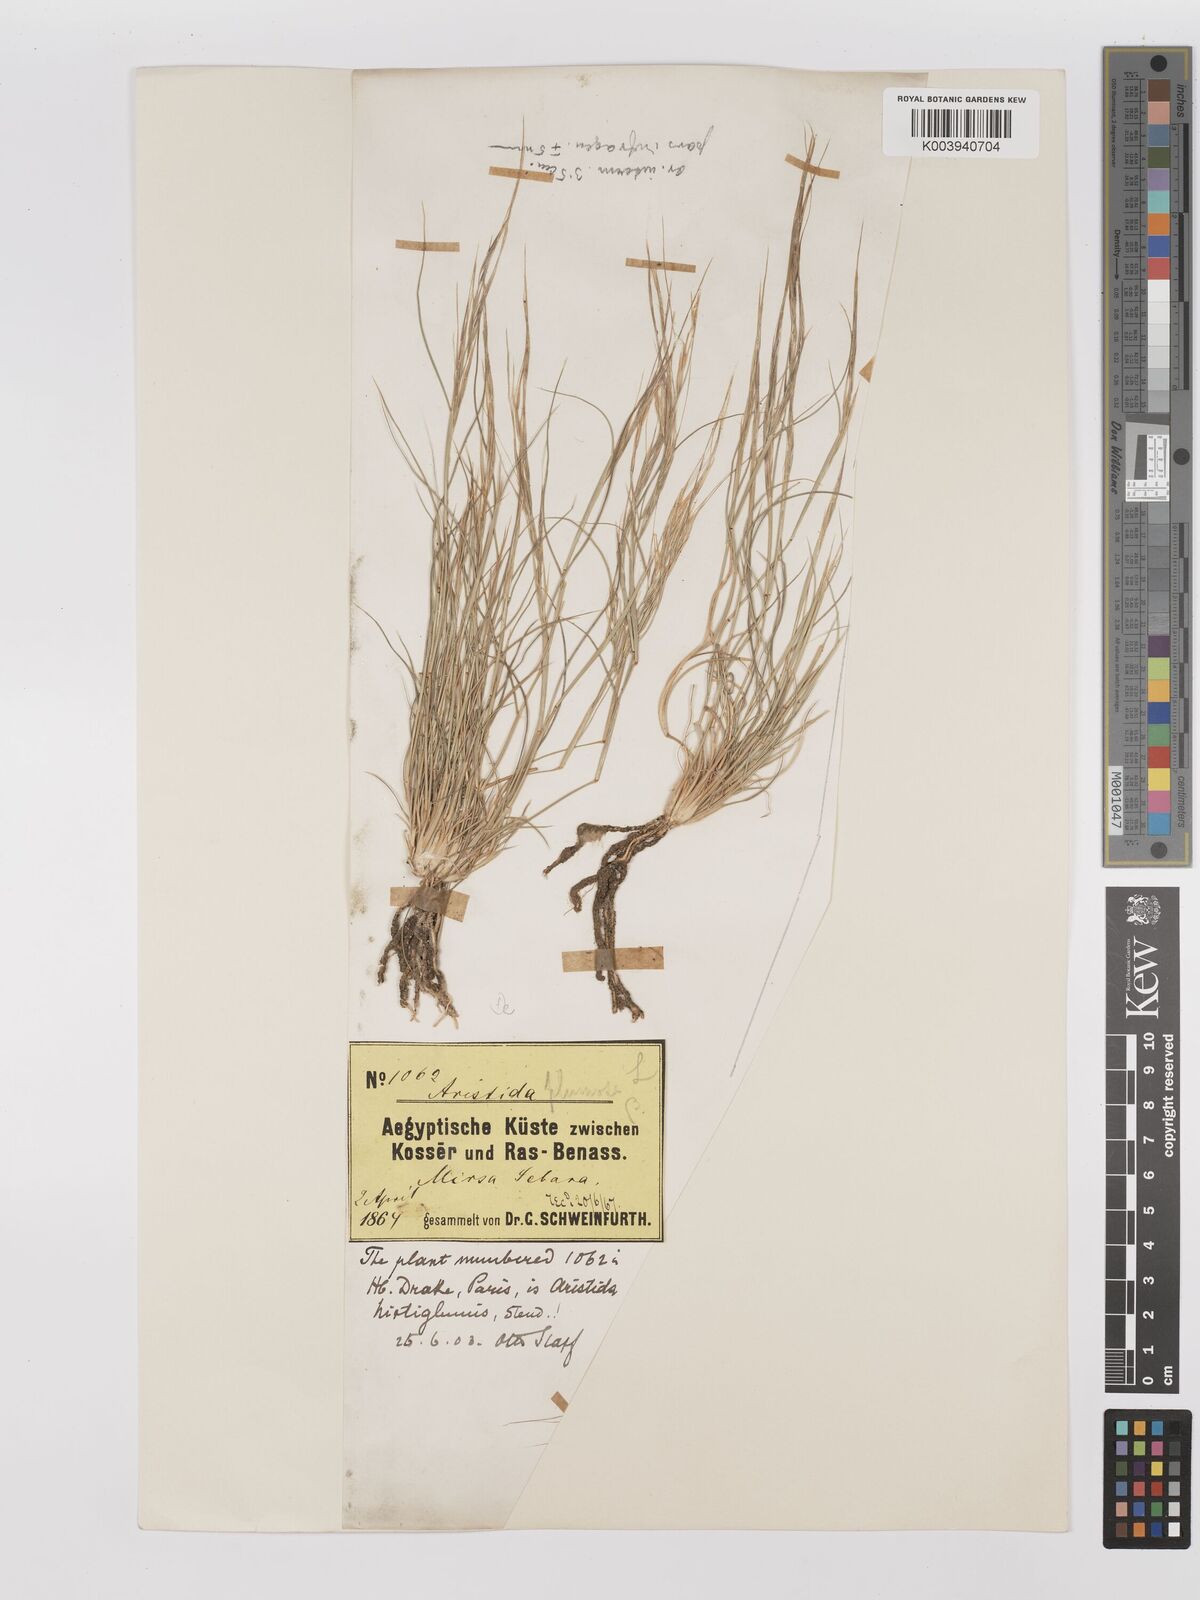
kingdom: Plantae
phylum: Tracheophyta
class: Liliopsida
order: Poales
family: Poaceae
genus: Stipagrostis
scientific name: Stipagrostis plumosa
